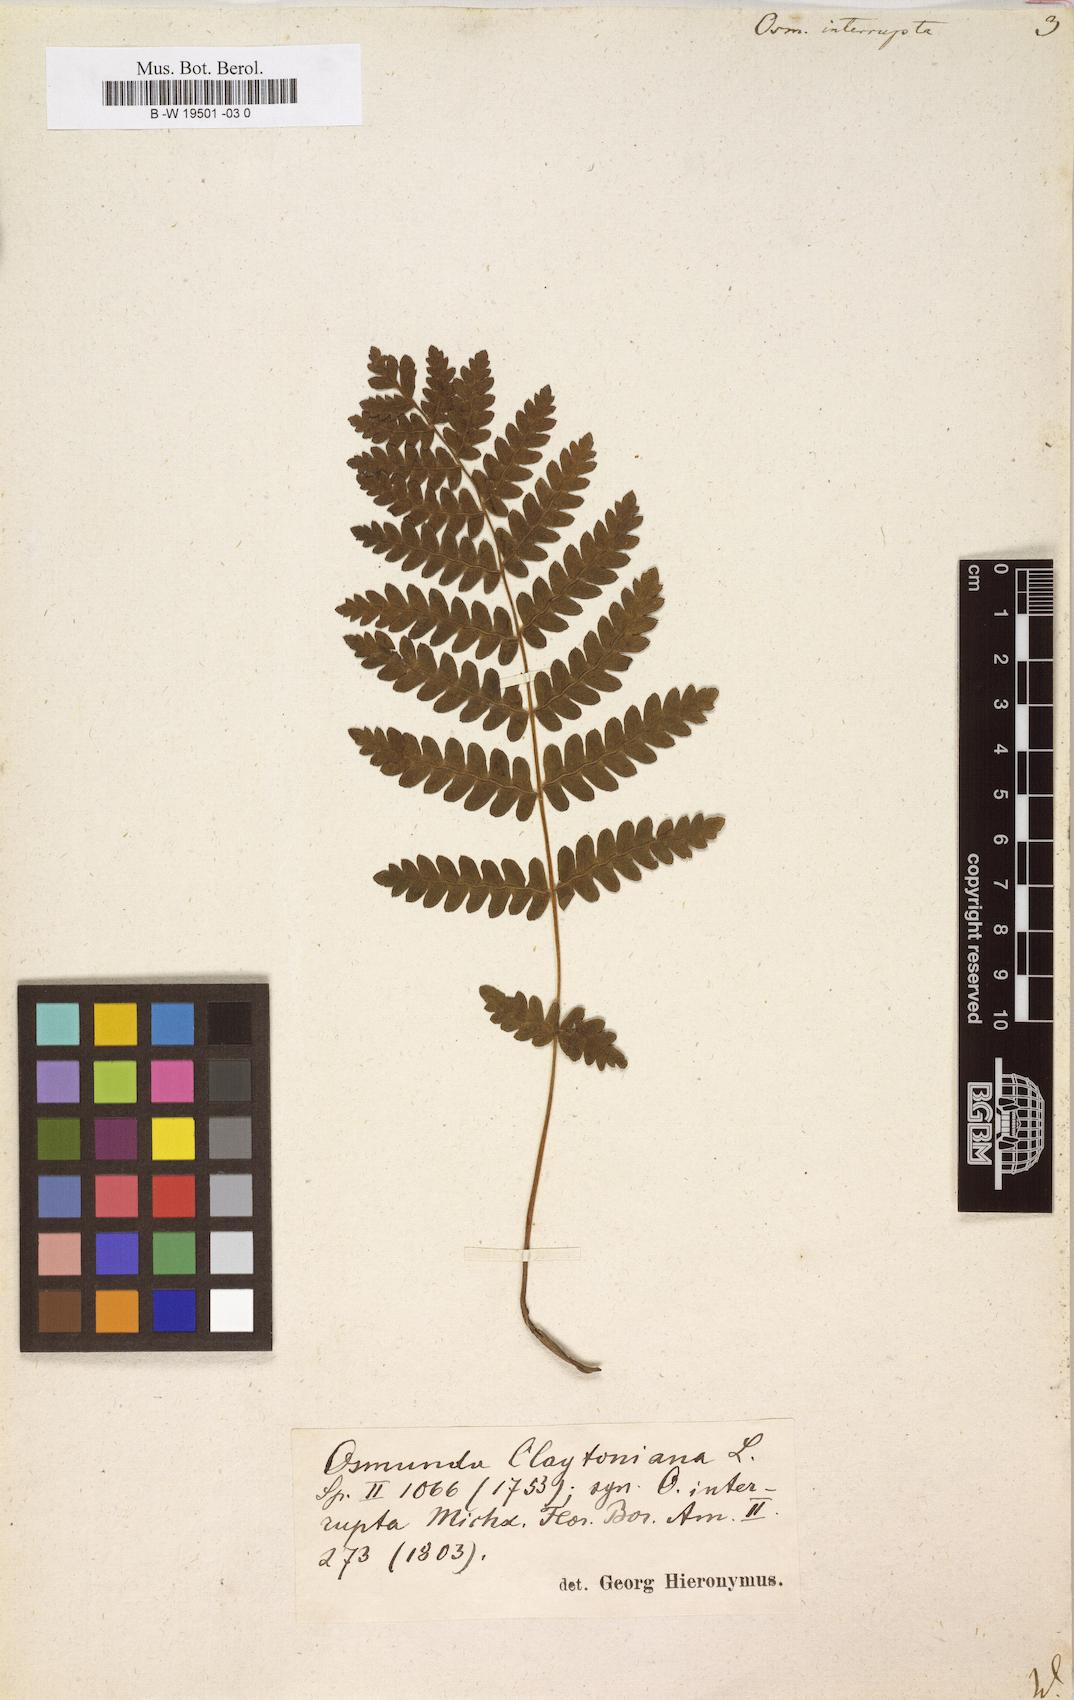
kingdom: Plantae
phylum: Tracheophyta
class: Polypodiopsida
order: Osmundales
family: Osmundaceae
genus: Claytosmunda
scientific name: Claytosmunda claytoniana
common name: Clayton's fern
